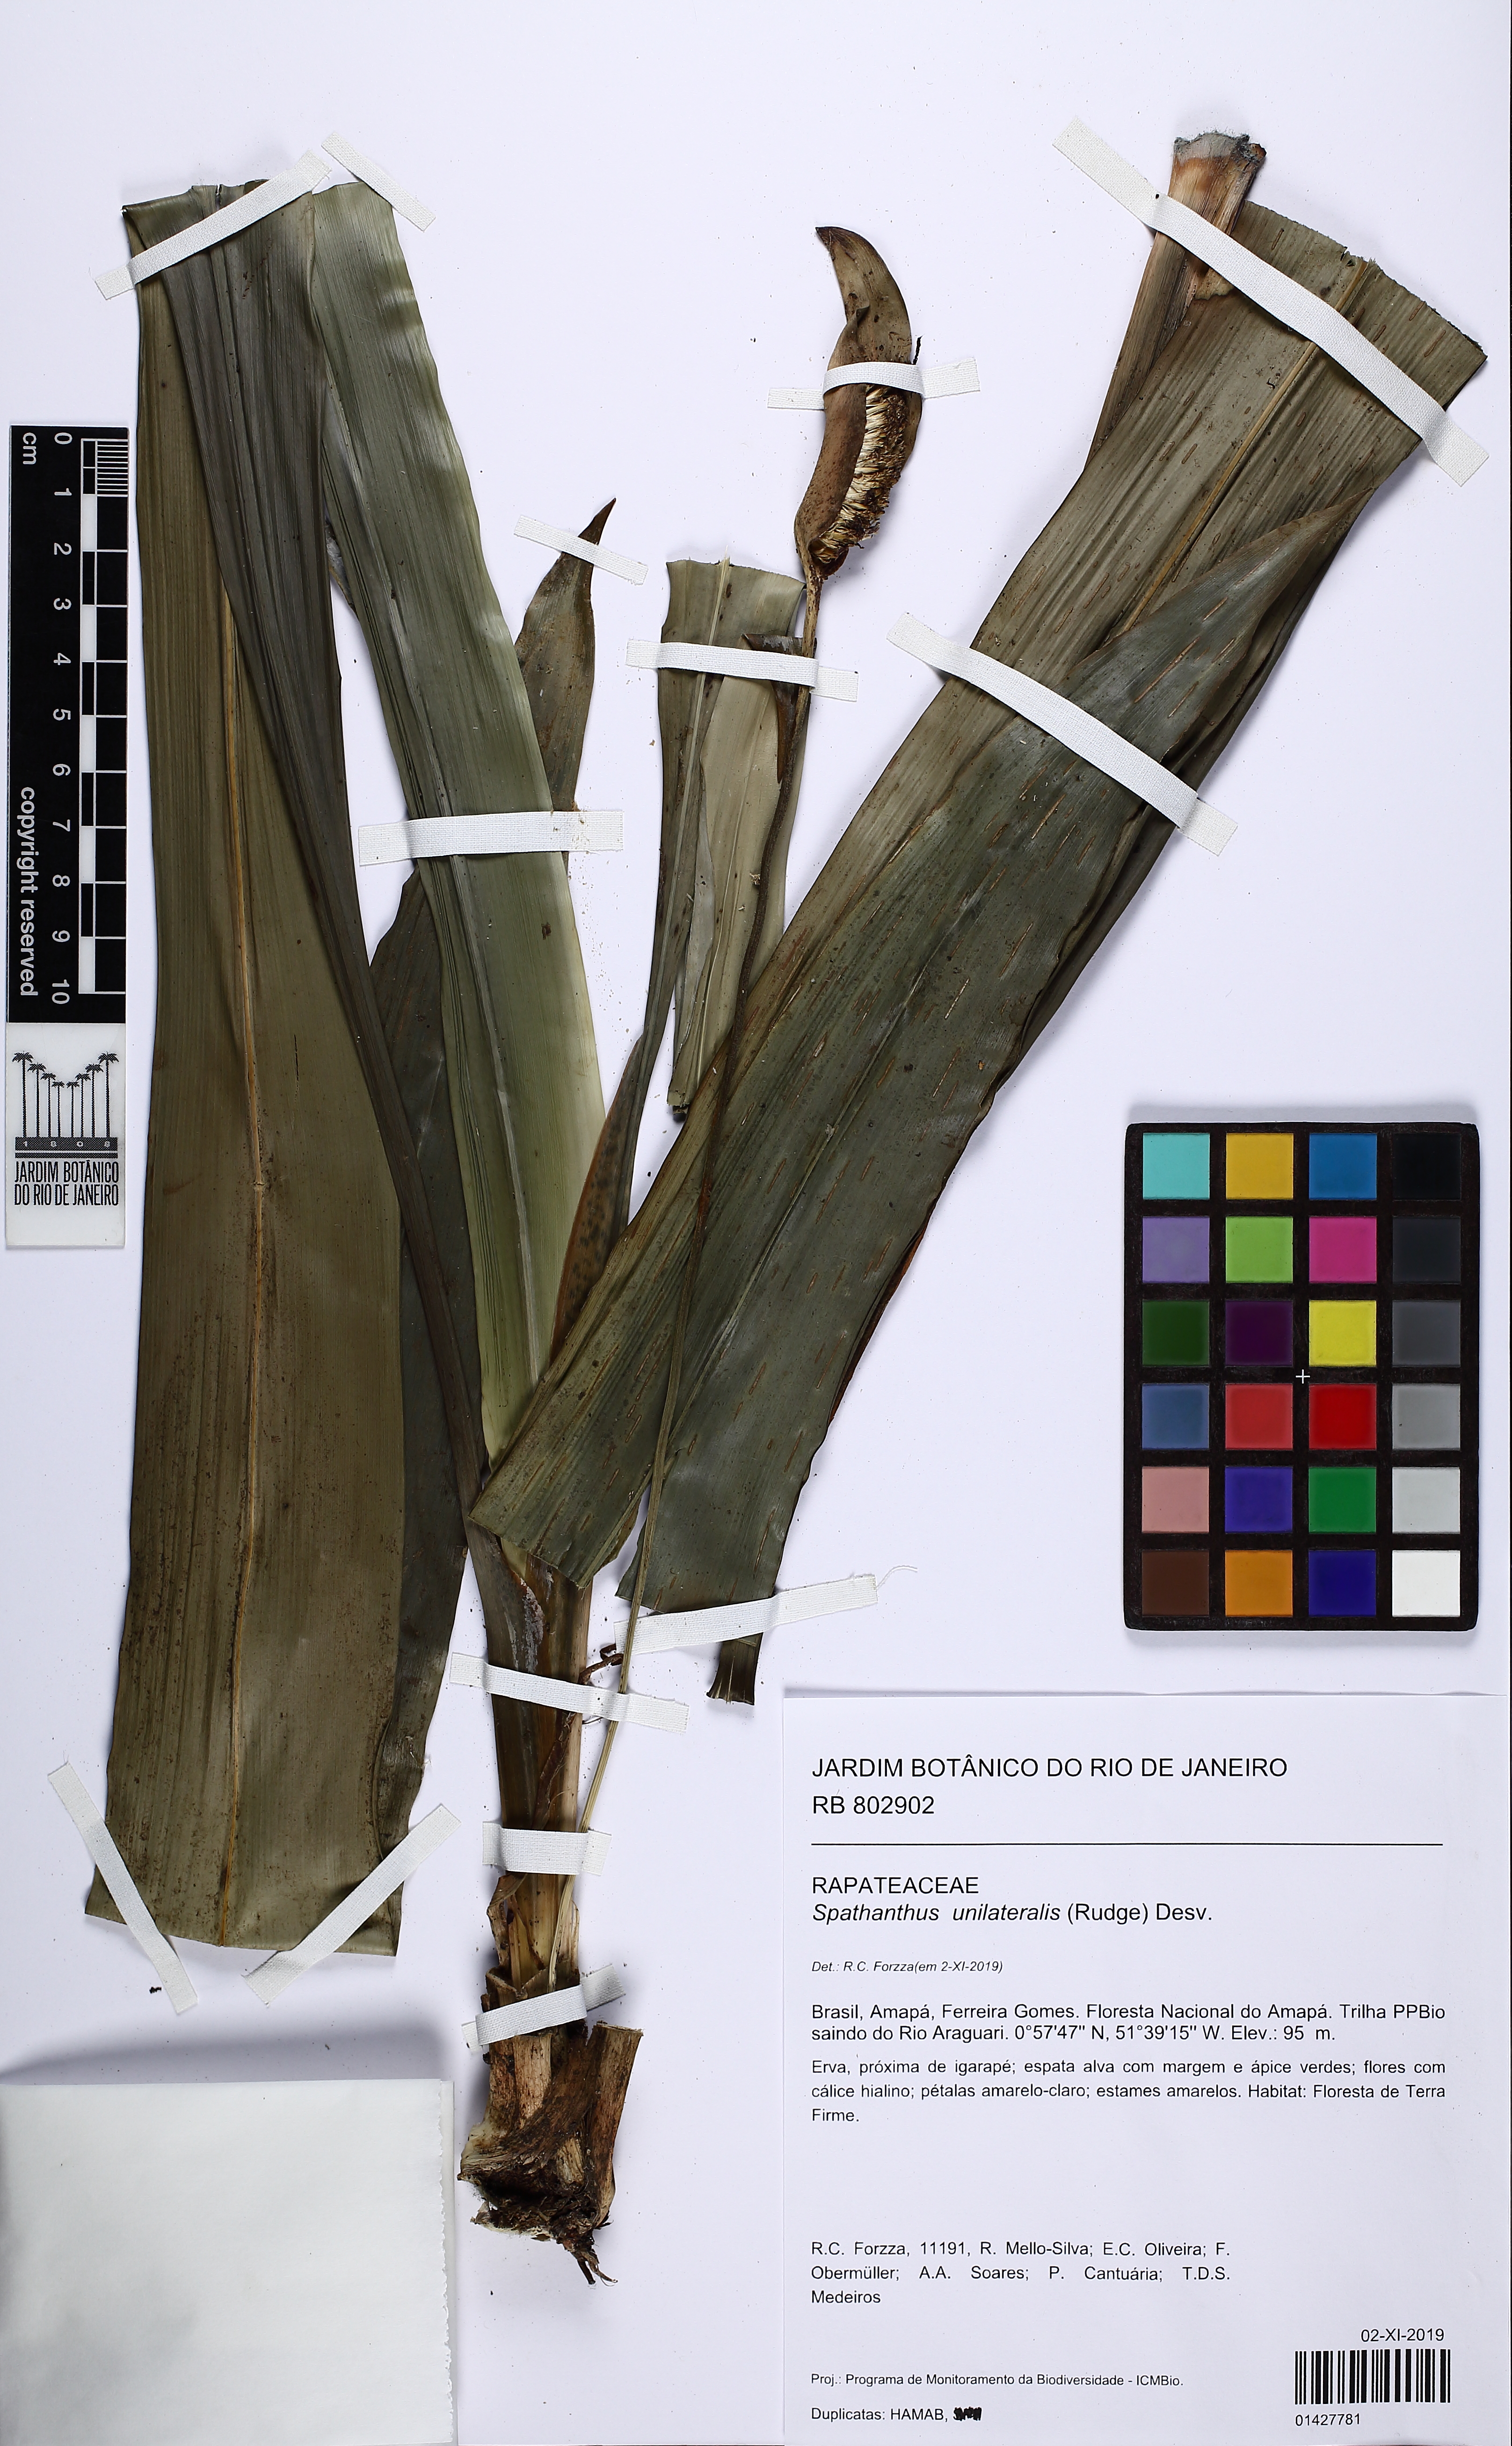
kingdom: Plantae
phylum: Tracheophyta
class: Liliopsida
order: Poales
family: Rapateaceae
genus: Spathanthus
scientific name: Spathanthus unilateralis
